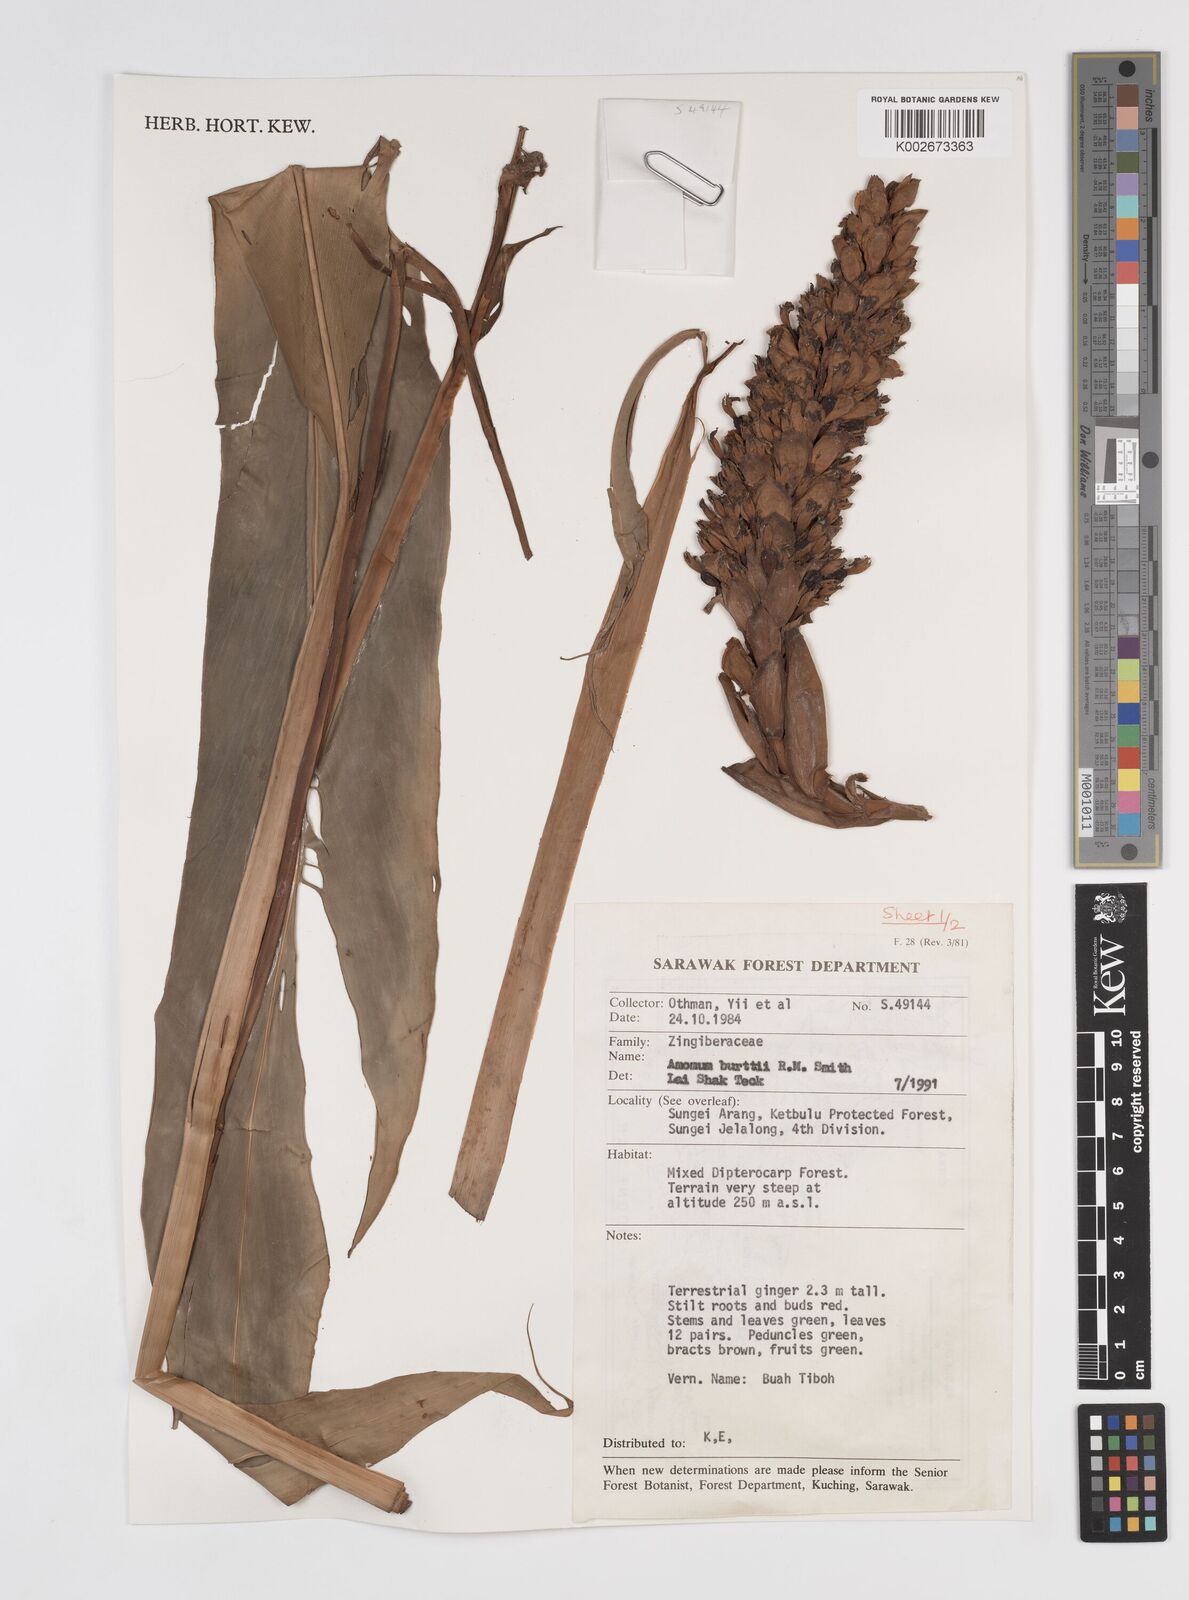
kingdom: Plantae
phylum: Tracheophyta
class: Liliopsida
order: Zingiberales
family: Zingiberaceae
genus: Sulettaria
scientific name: Sulettaria burttii
